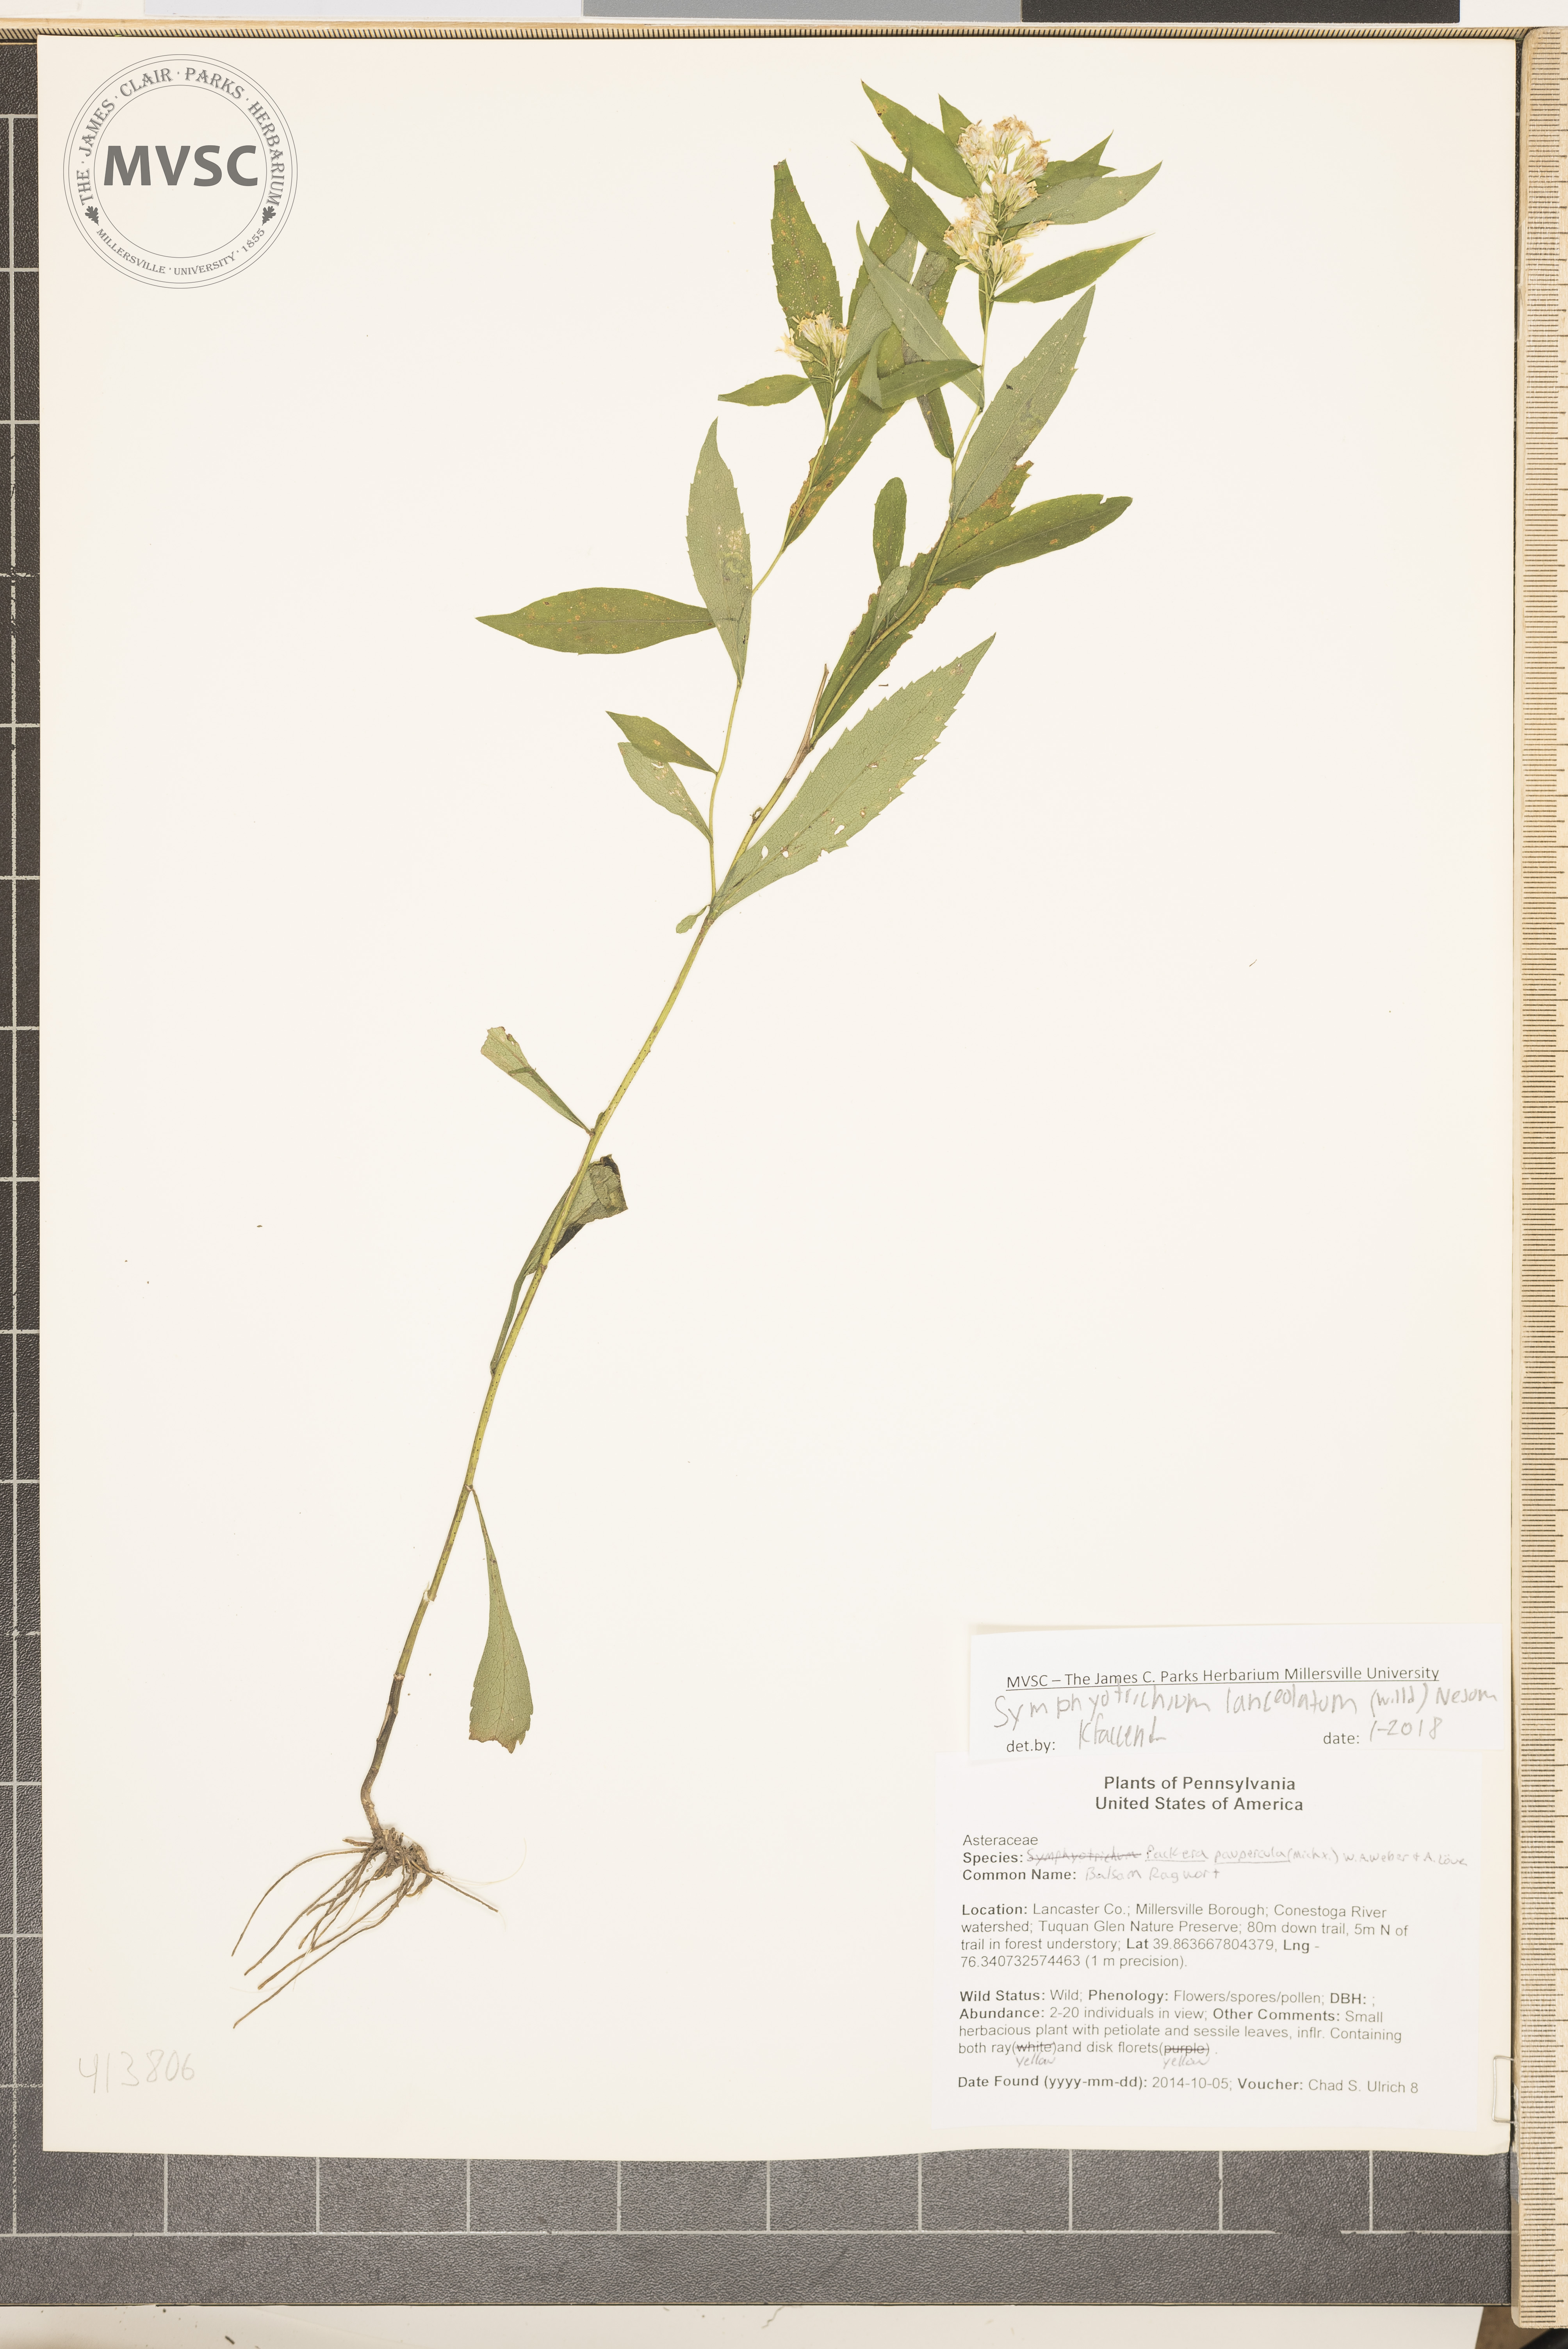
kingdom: Plantae
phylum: Tracheophyta
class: Magnoliopsida
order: Asterales
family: Asteraceae
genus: Symphyotrichum
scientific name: Symphyotrichum lanceolatum
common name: Panicled aster
